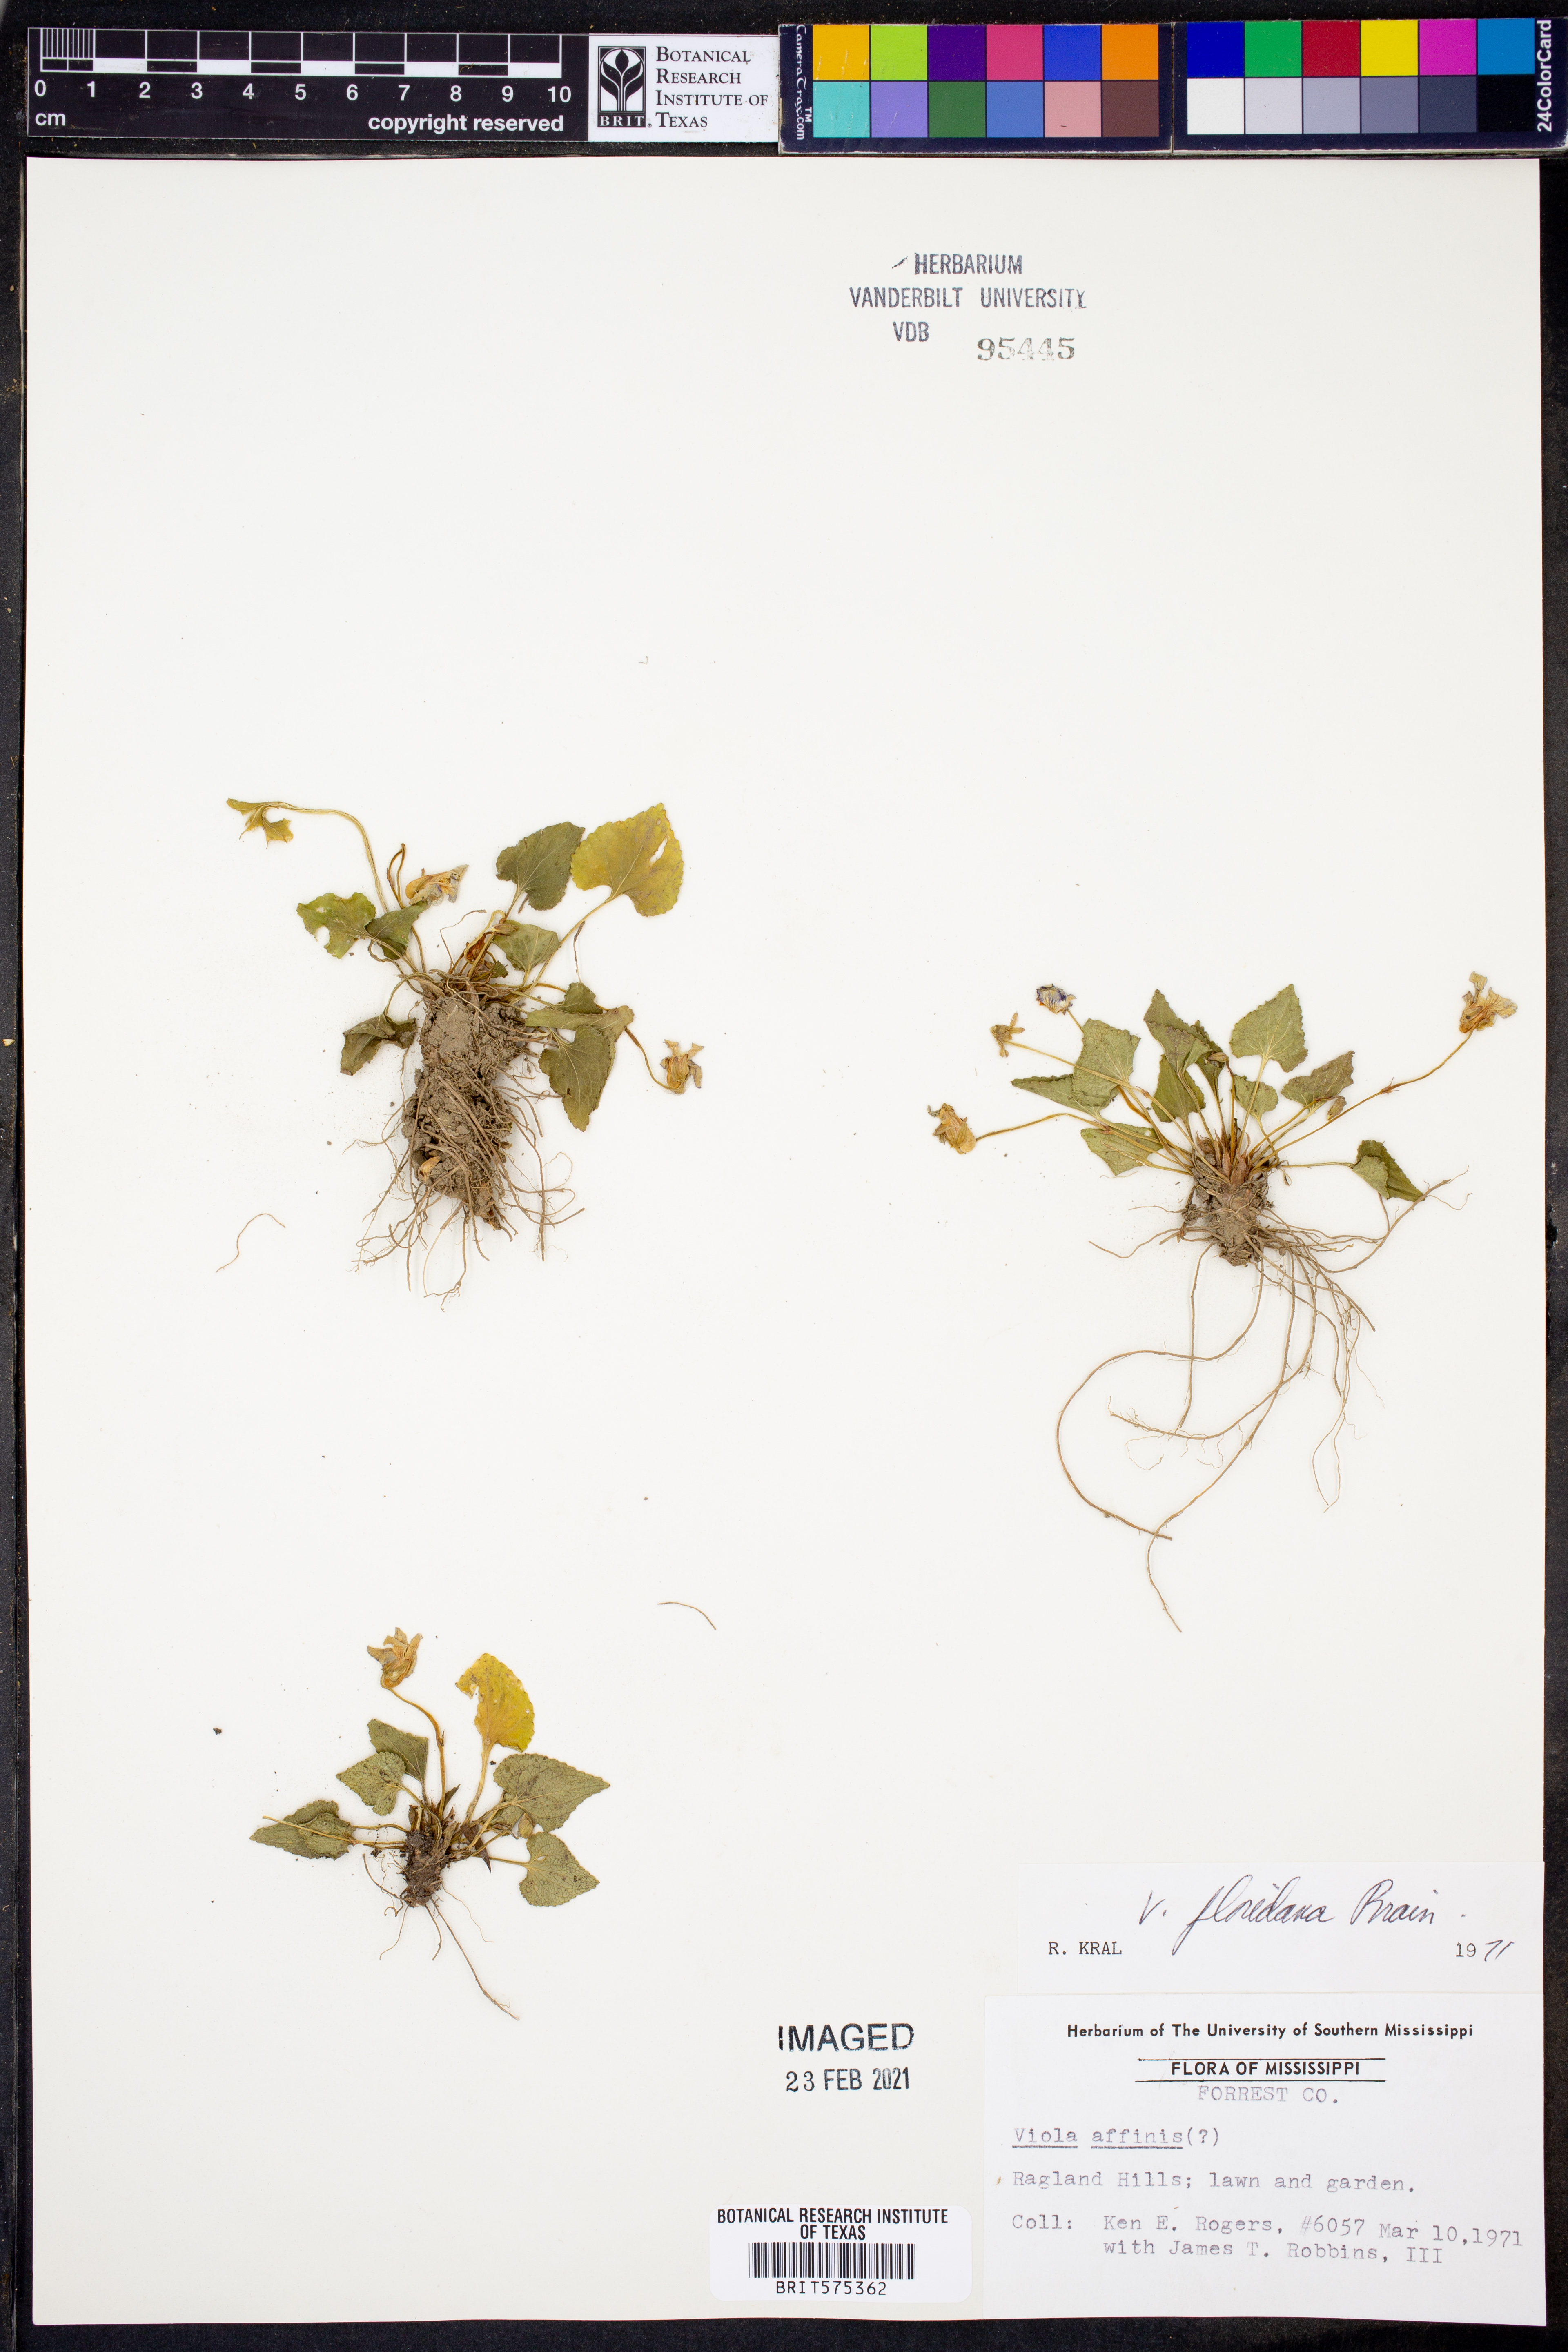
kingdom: Plantae
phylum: Tracheophyta
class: Magnoliopsida
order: Malpighiales
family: Violaceae
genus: Viola
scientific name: Viola floridana
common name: Florida violet
